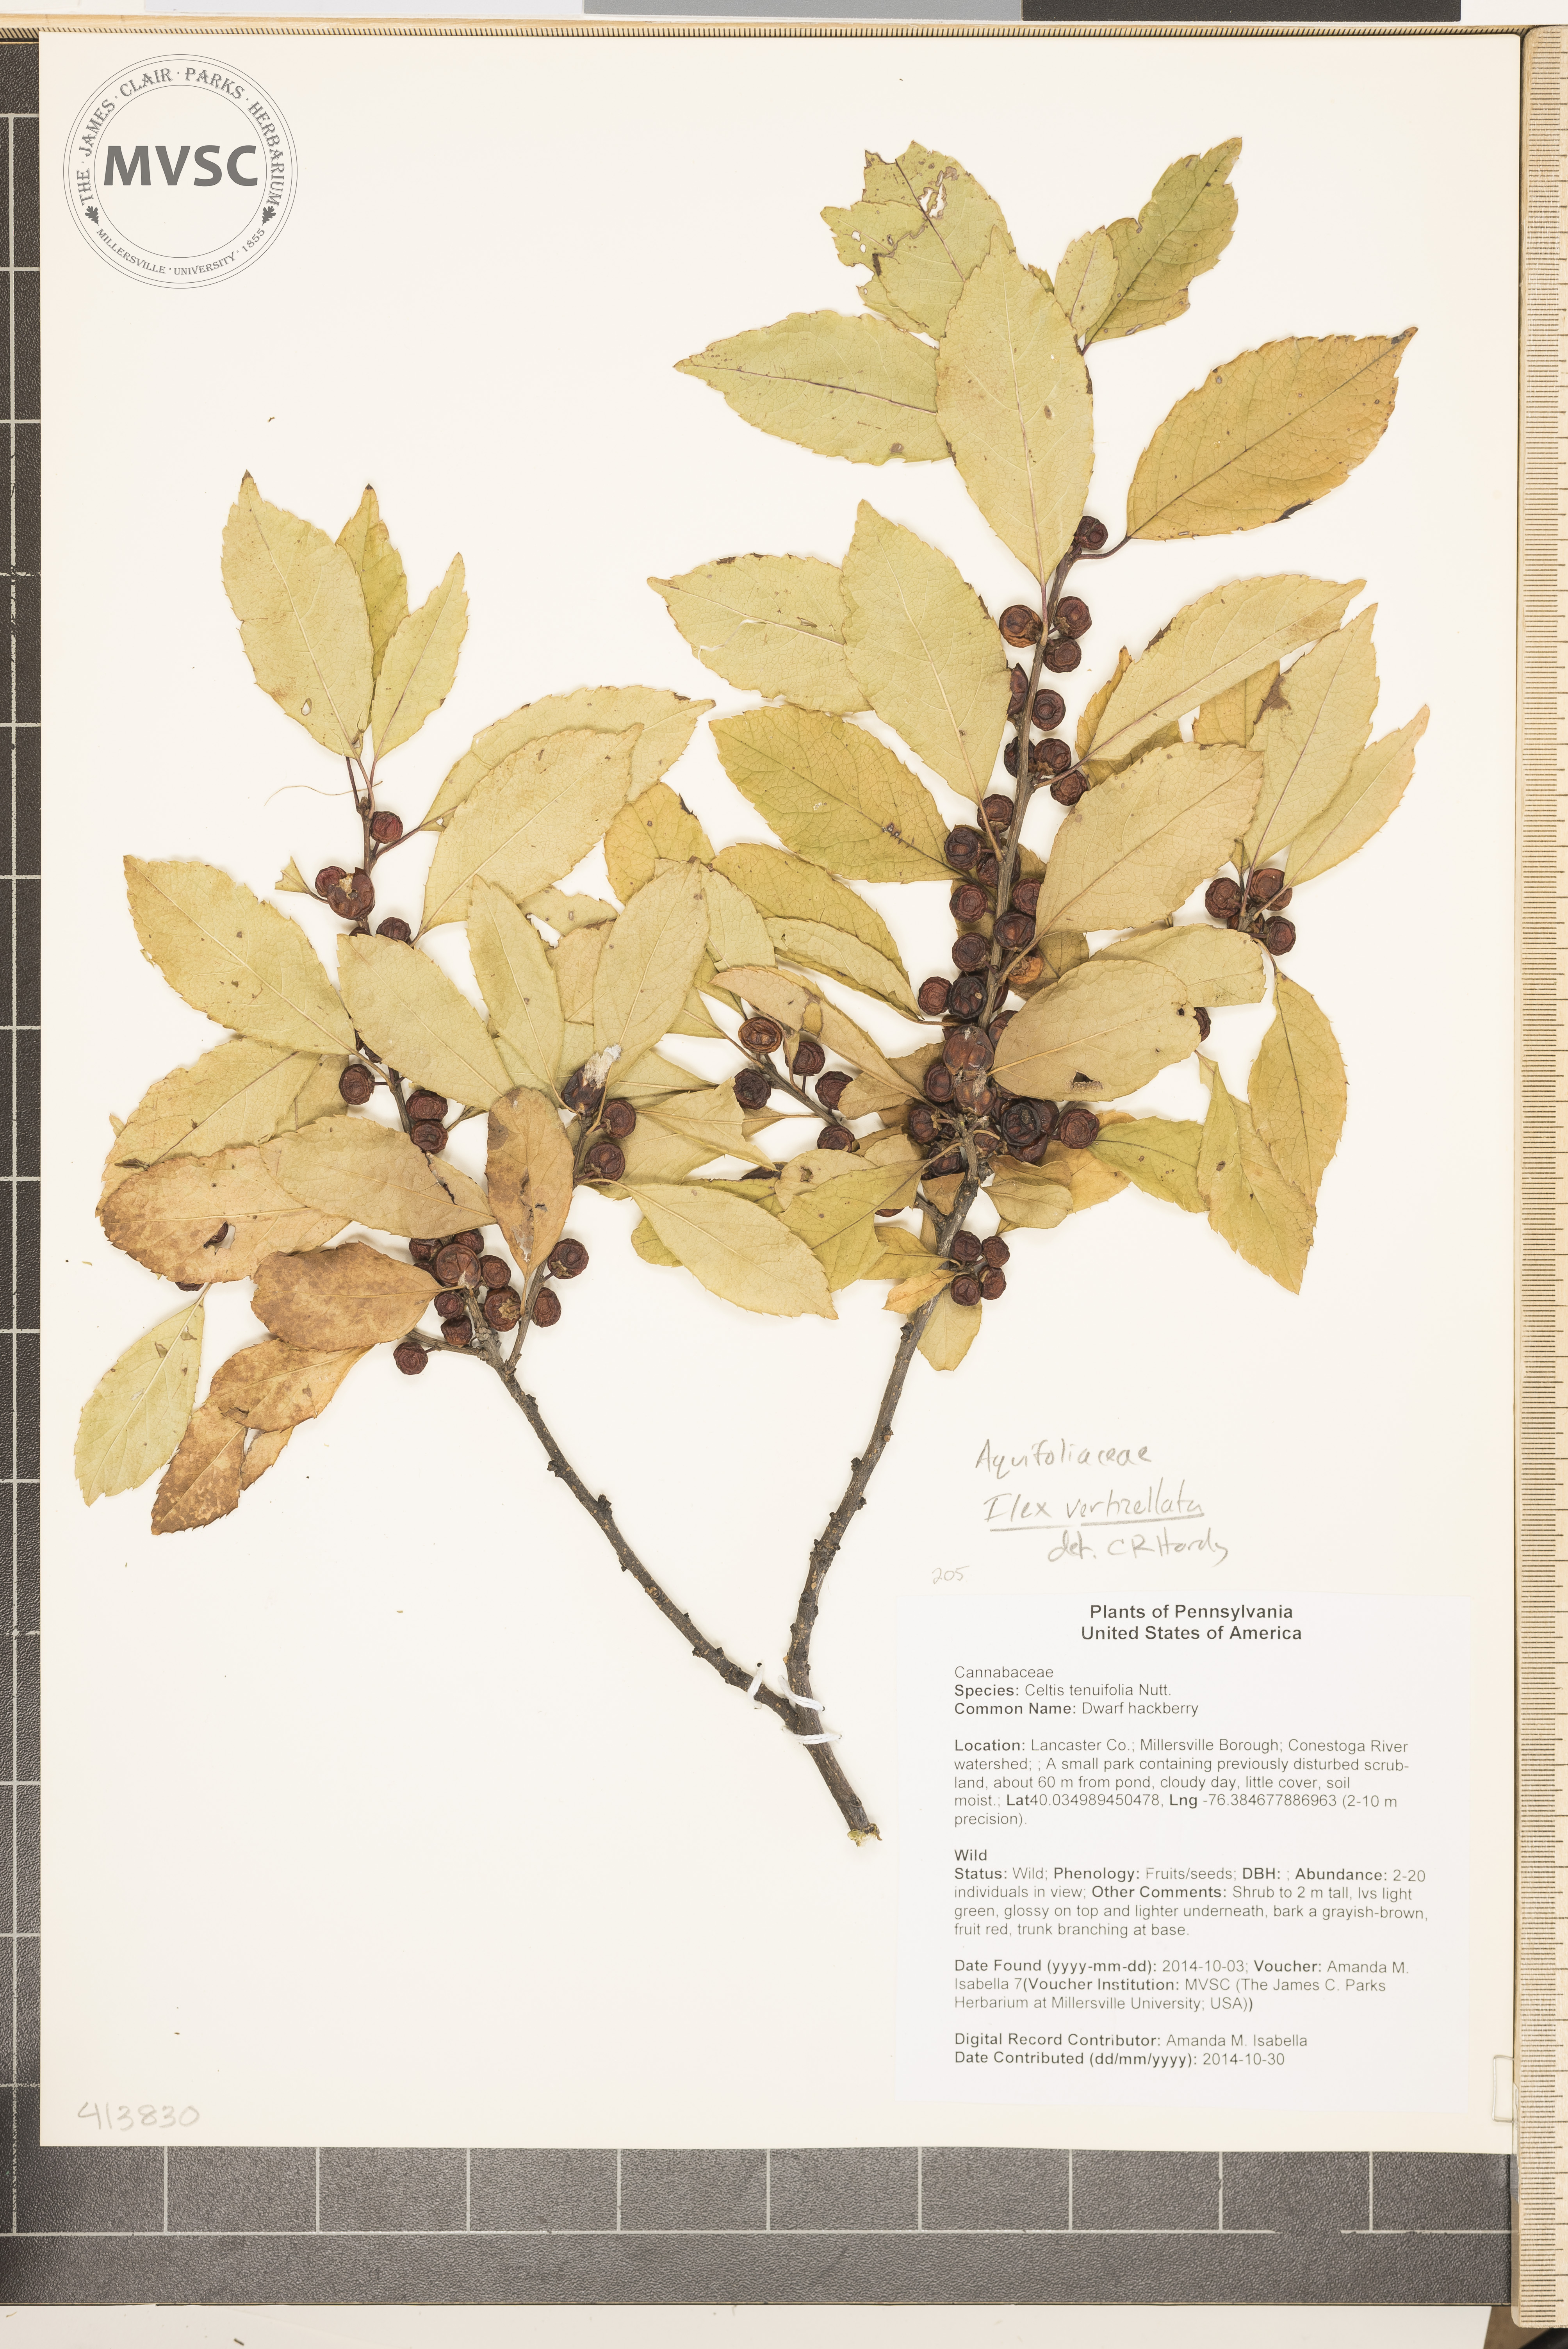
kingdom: Plantae
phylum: Tracheophyta
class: Magnoliopsida
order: Aquifoliales
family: Aquifoliaceae
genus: Ilex
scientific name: Ilex verticillata
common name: Winterberry
